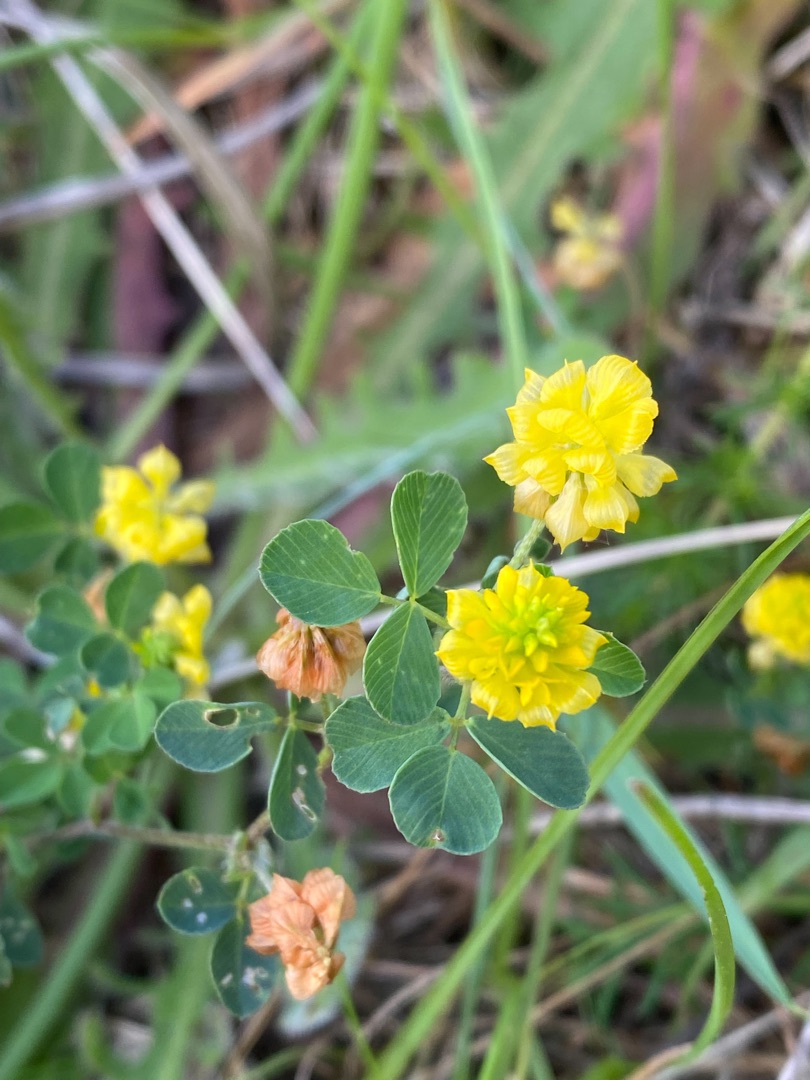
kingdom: Plantae
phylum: Tracheophyta
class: Magnoliopsida
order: Fabales
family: Fabaceae
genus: Trifolium
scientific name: Trifolium campestre
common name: Gul kløver
